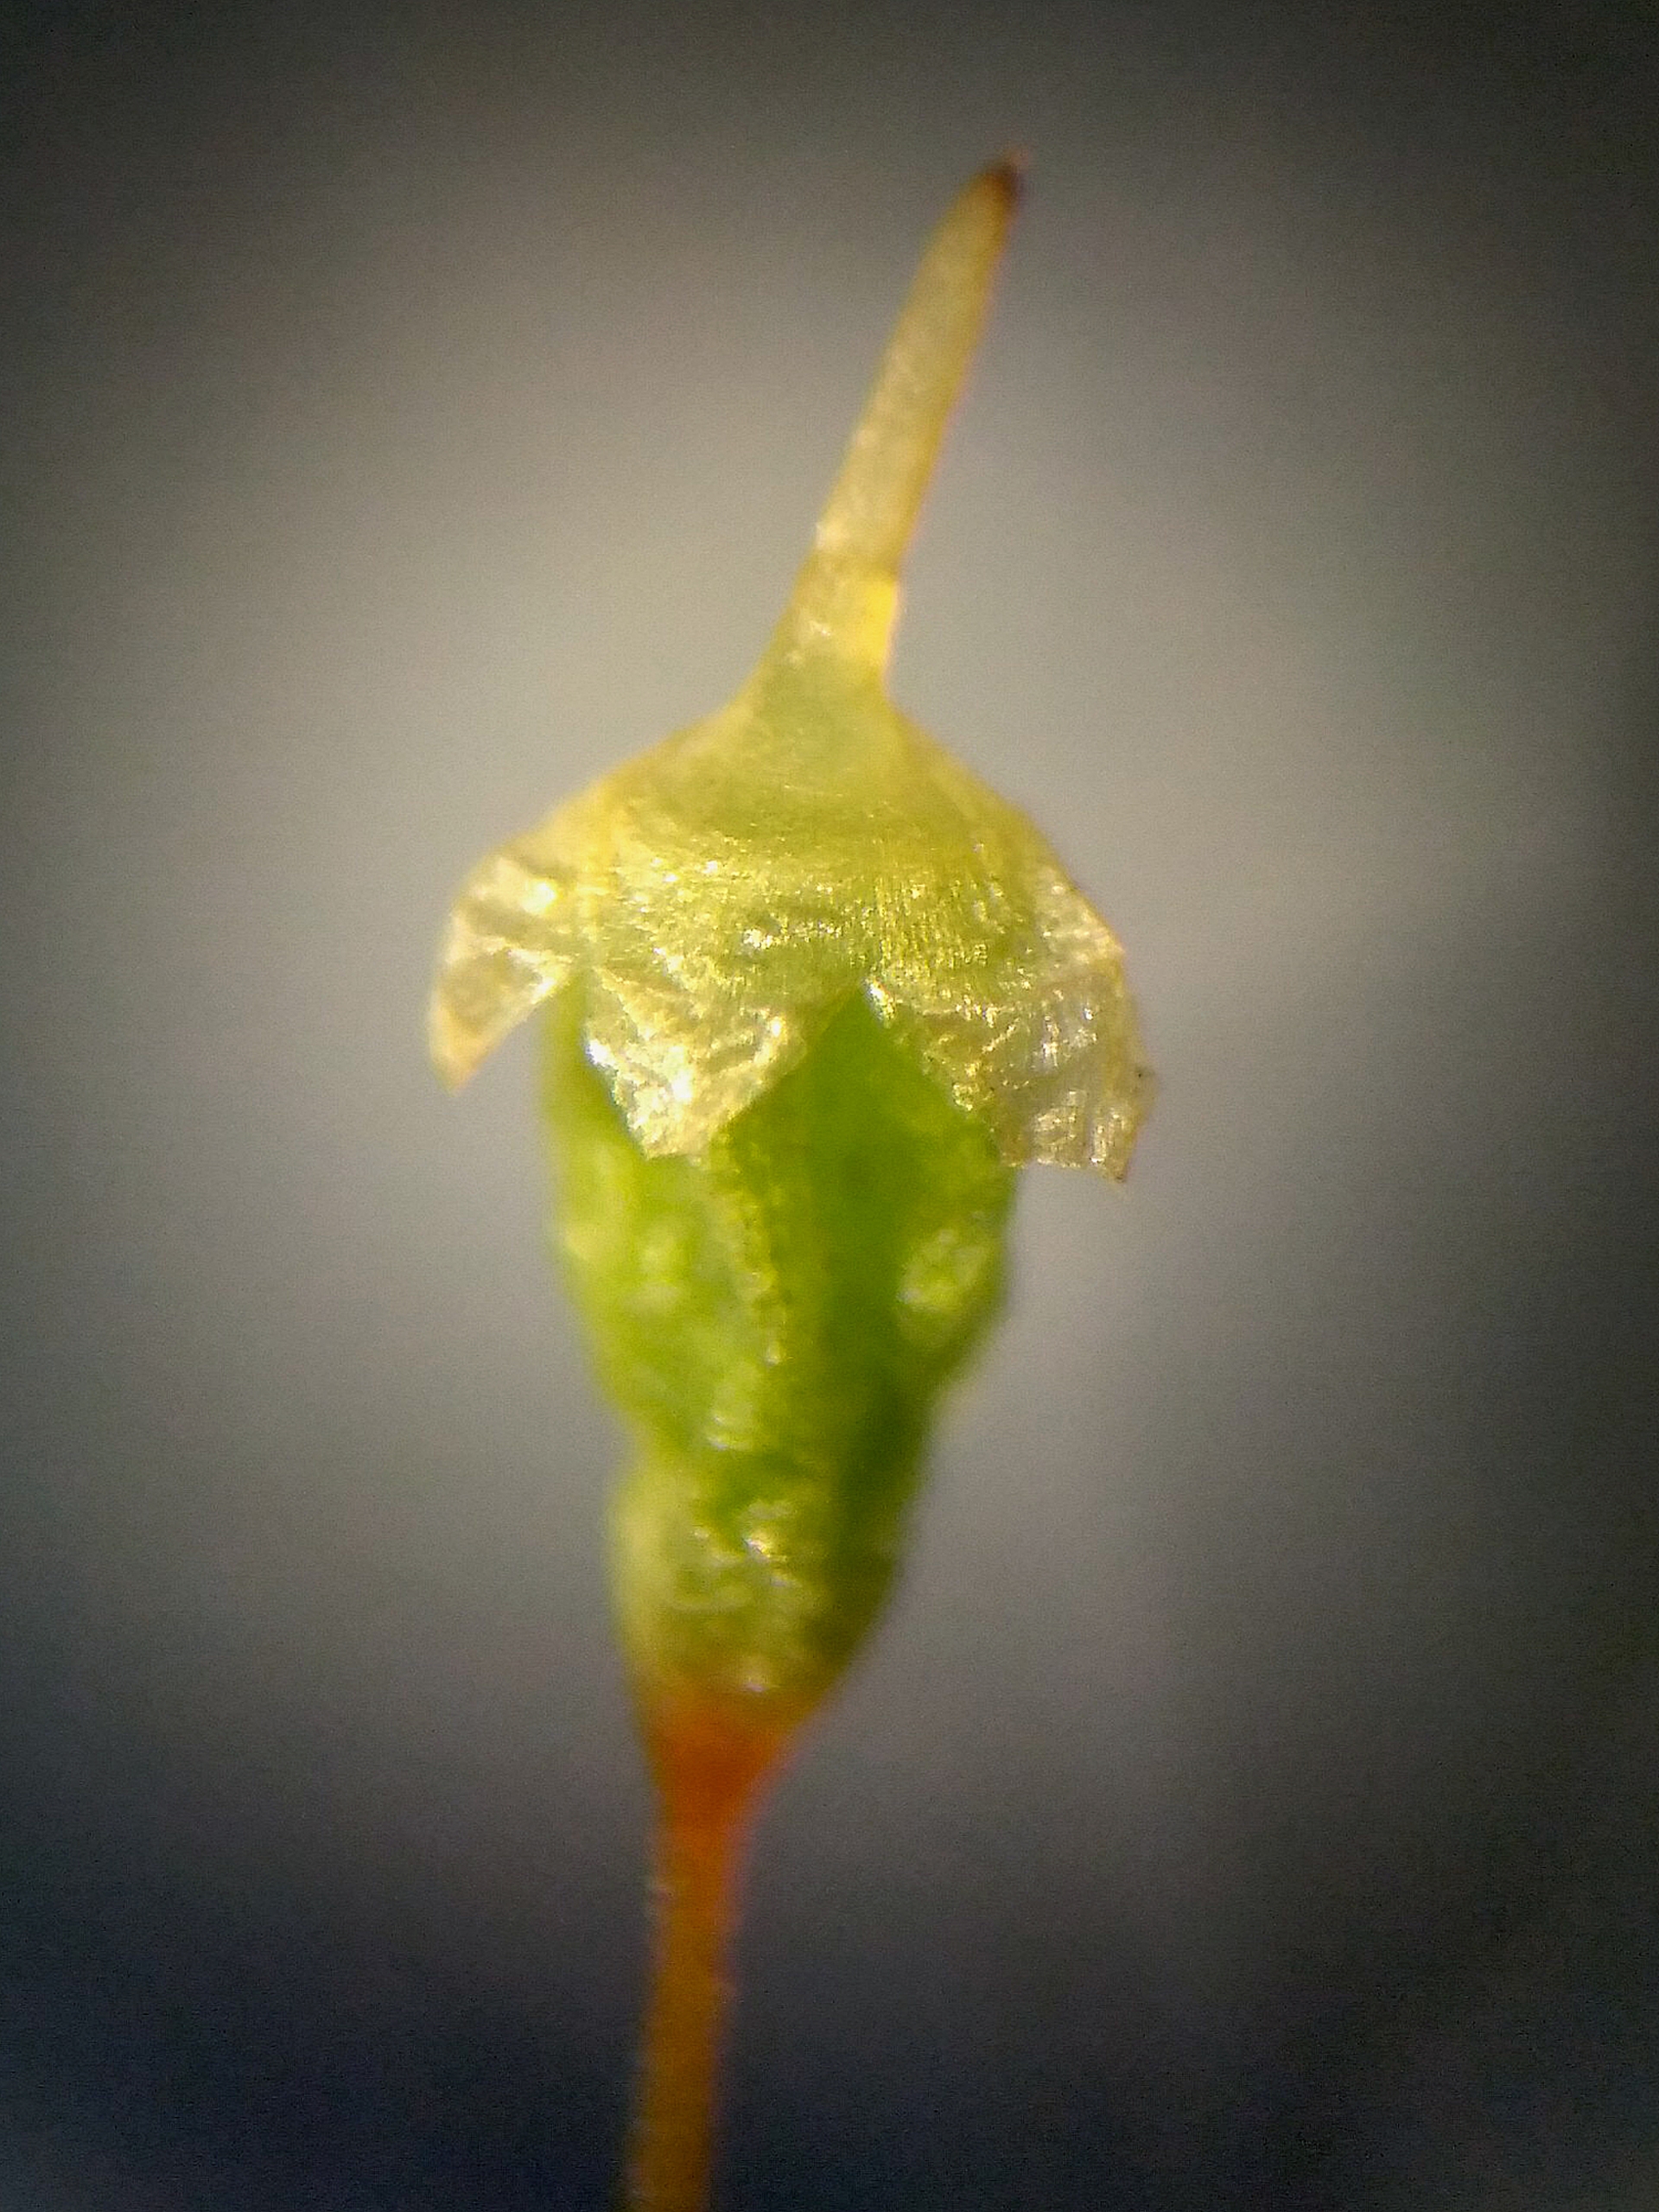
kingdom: Plantae
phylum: Bryophyta
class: Bryopsida
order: Funariales
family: Funariaceae
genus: Physcomitrium
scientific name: Physcomitrium pyriforme
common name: Almindelig pærekapsel
